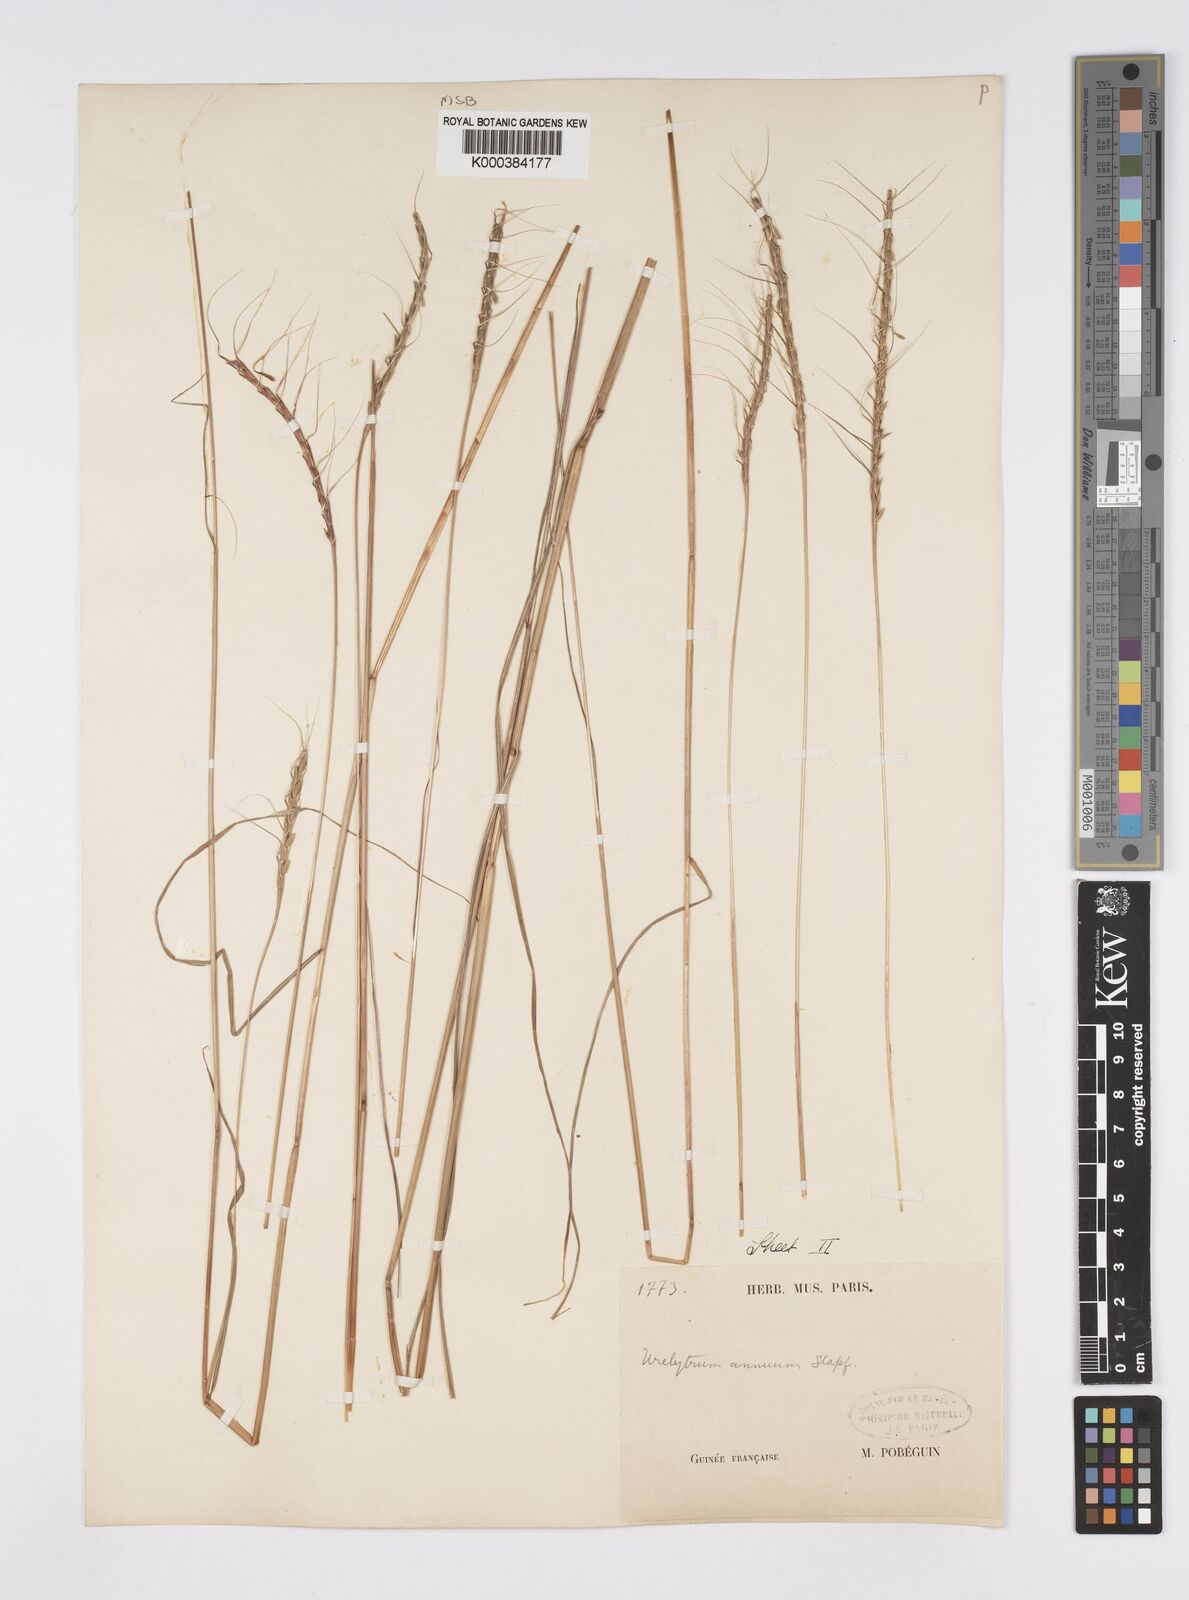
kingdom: Plantae
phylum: Tracheophyta
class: Liliopsida
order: Poales
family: Poaceae
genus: Urelytrum
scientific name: Urelytrum annuum
